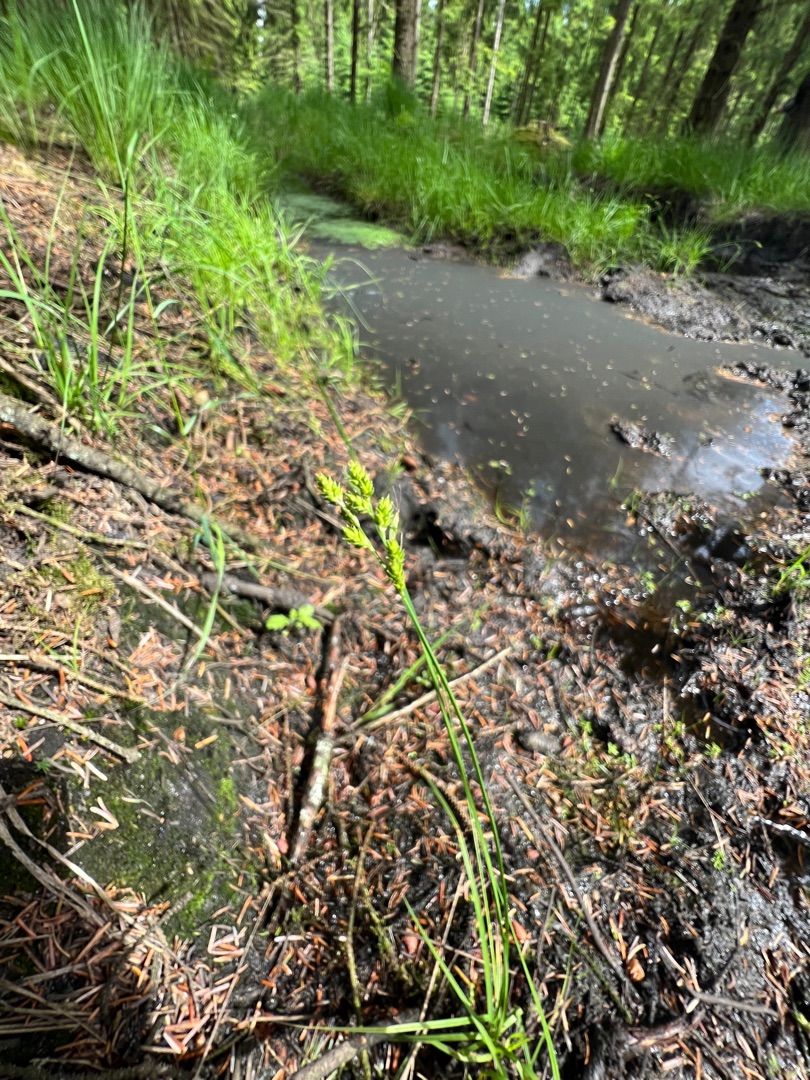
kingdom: Plantae
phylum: Tracheophyta
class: Liliopsida
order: Poales
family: Cyperaceae
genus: Carex
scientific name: Carex canescens
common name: Grå star
